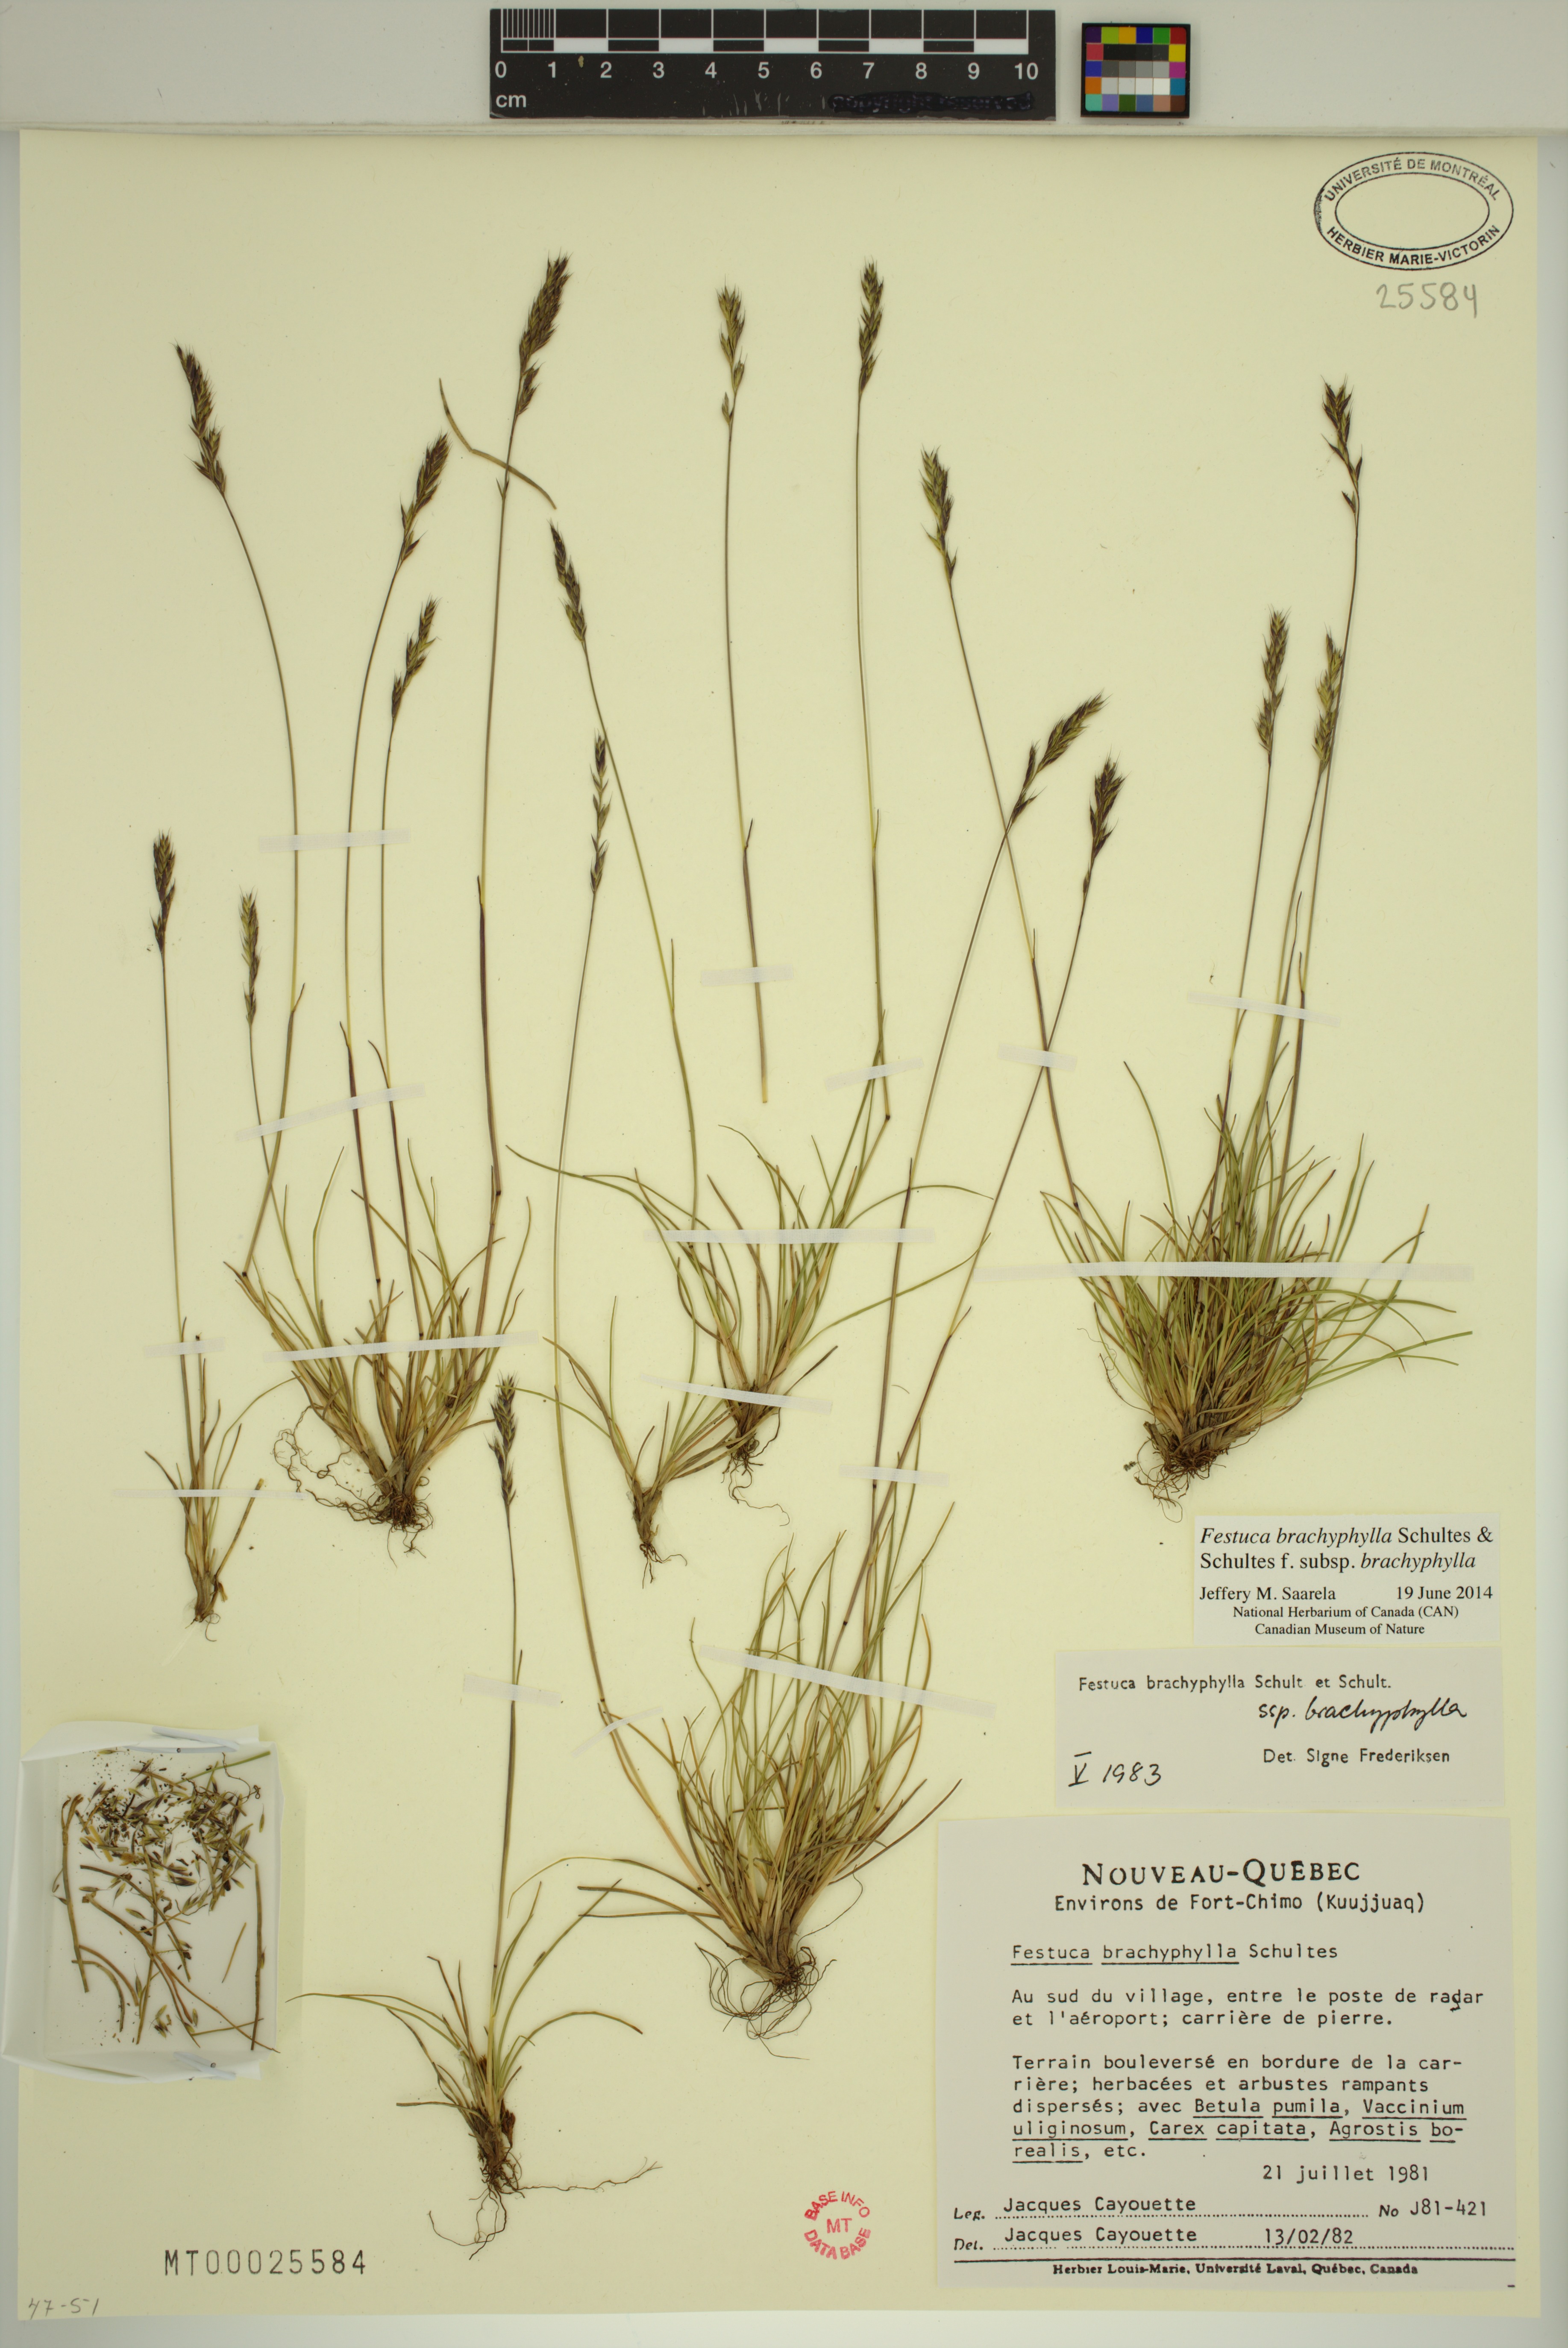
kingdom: Plantae
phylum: Tracheophyta
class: Liliopsida
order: Poales
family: Poaceae
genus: Festuca
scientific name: Festuca brachyphylla
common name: Alpine fescue
